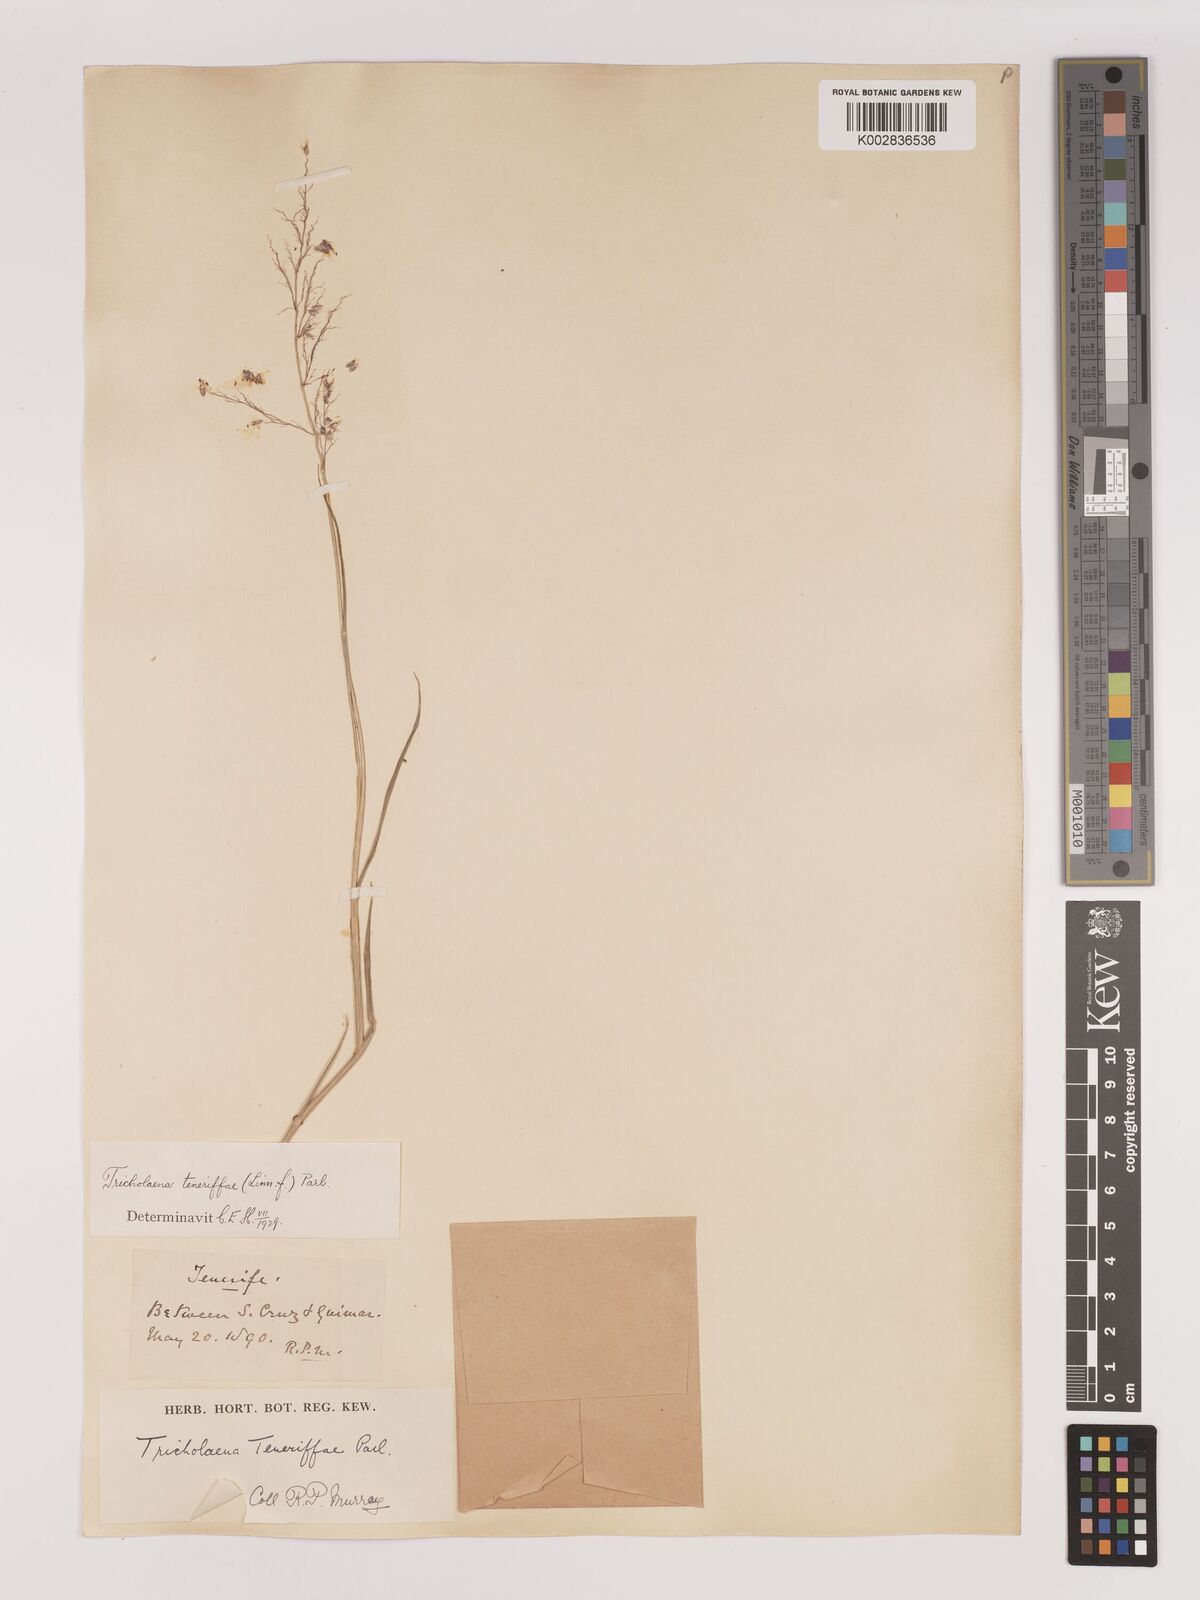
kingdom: Plantae
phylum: Tracheophyta
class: Liliopsida
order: Poales
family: Poaceae
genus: Tricholaena
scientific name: Tricholaena teneriffae
